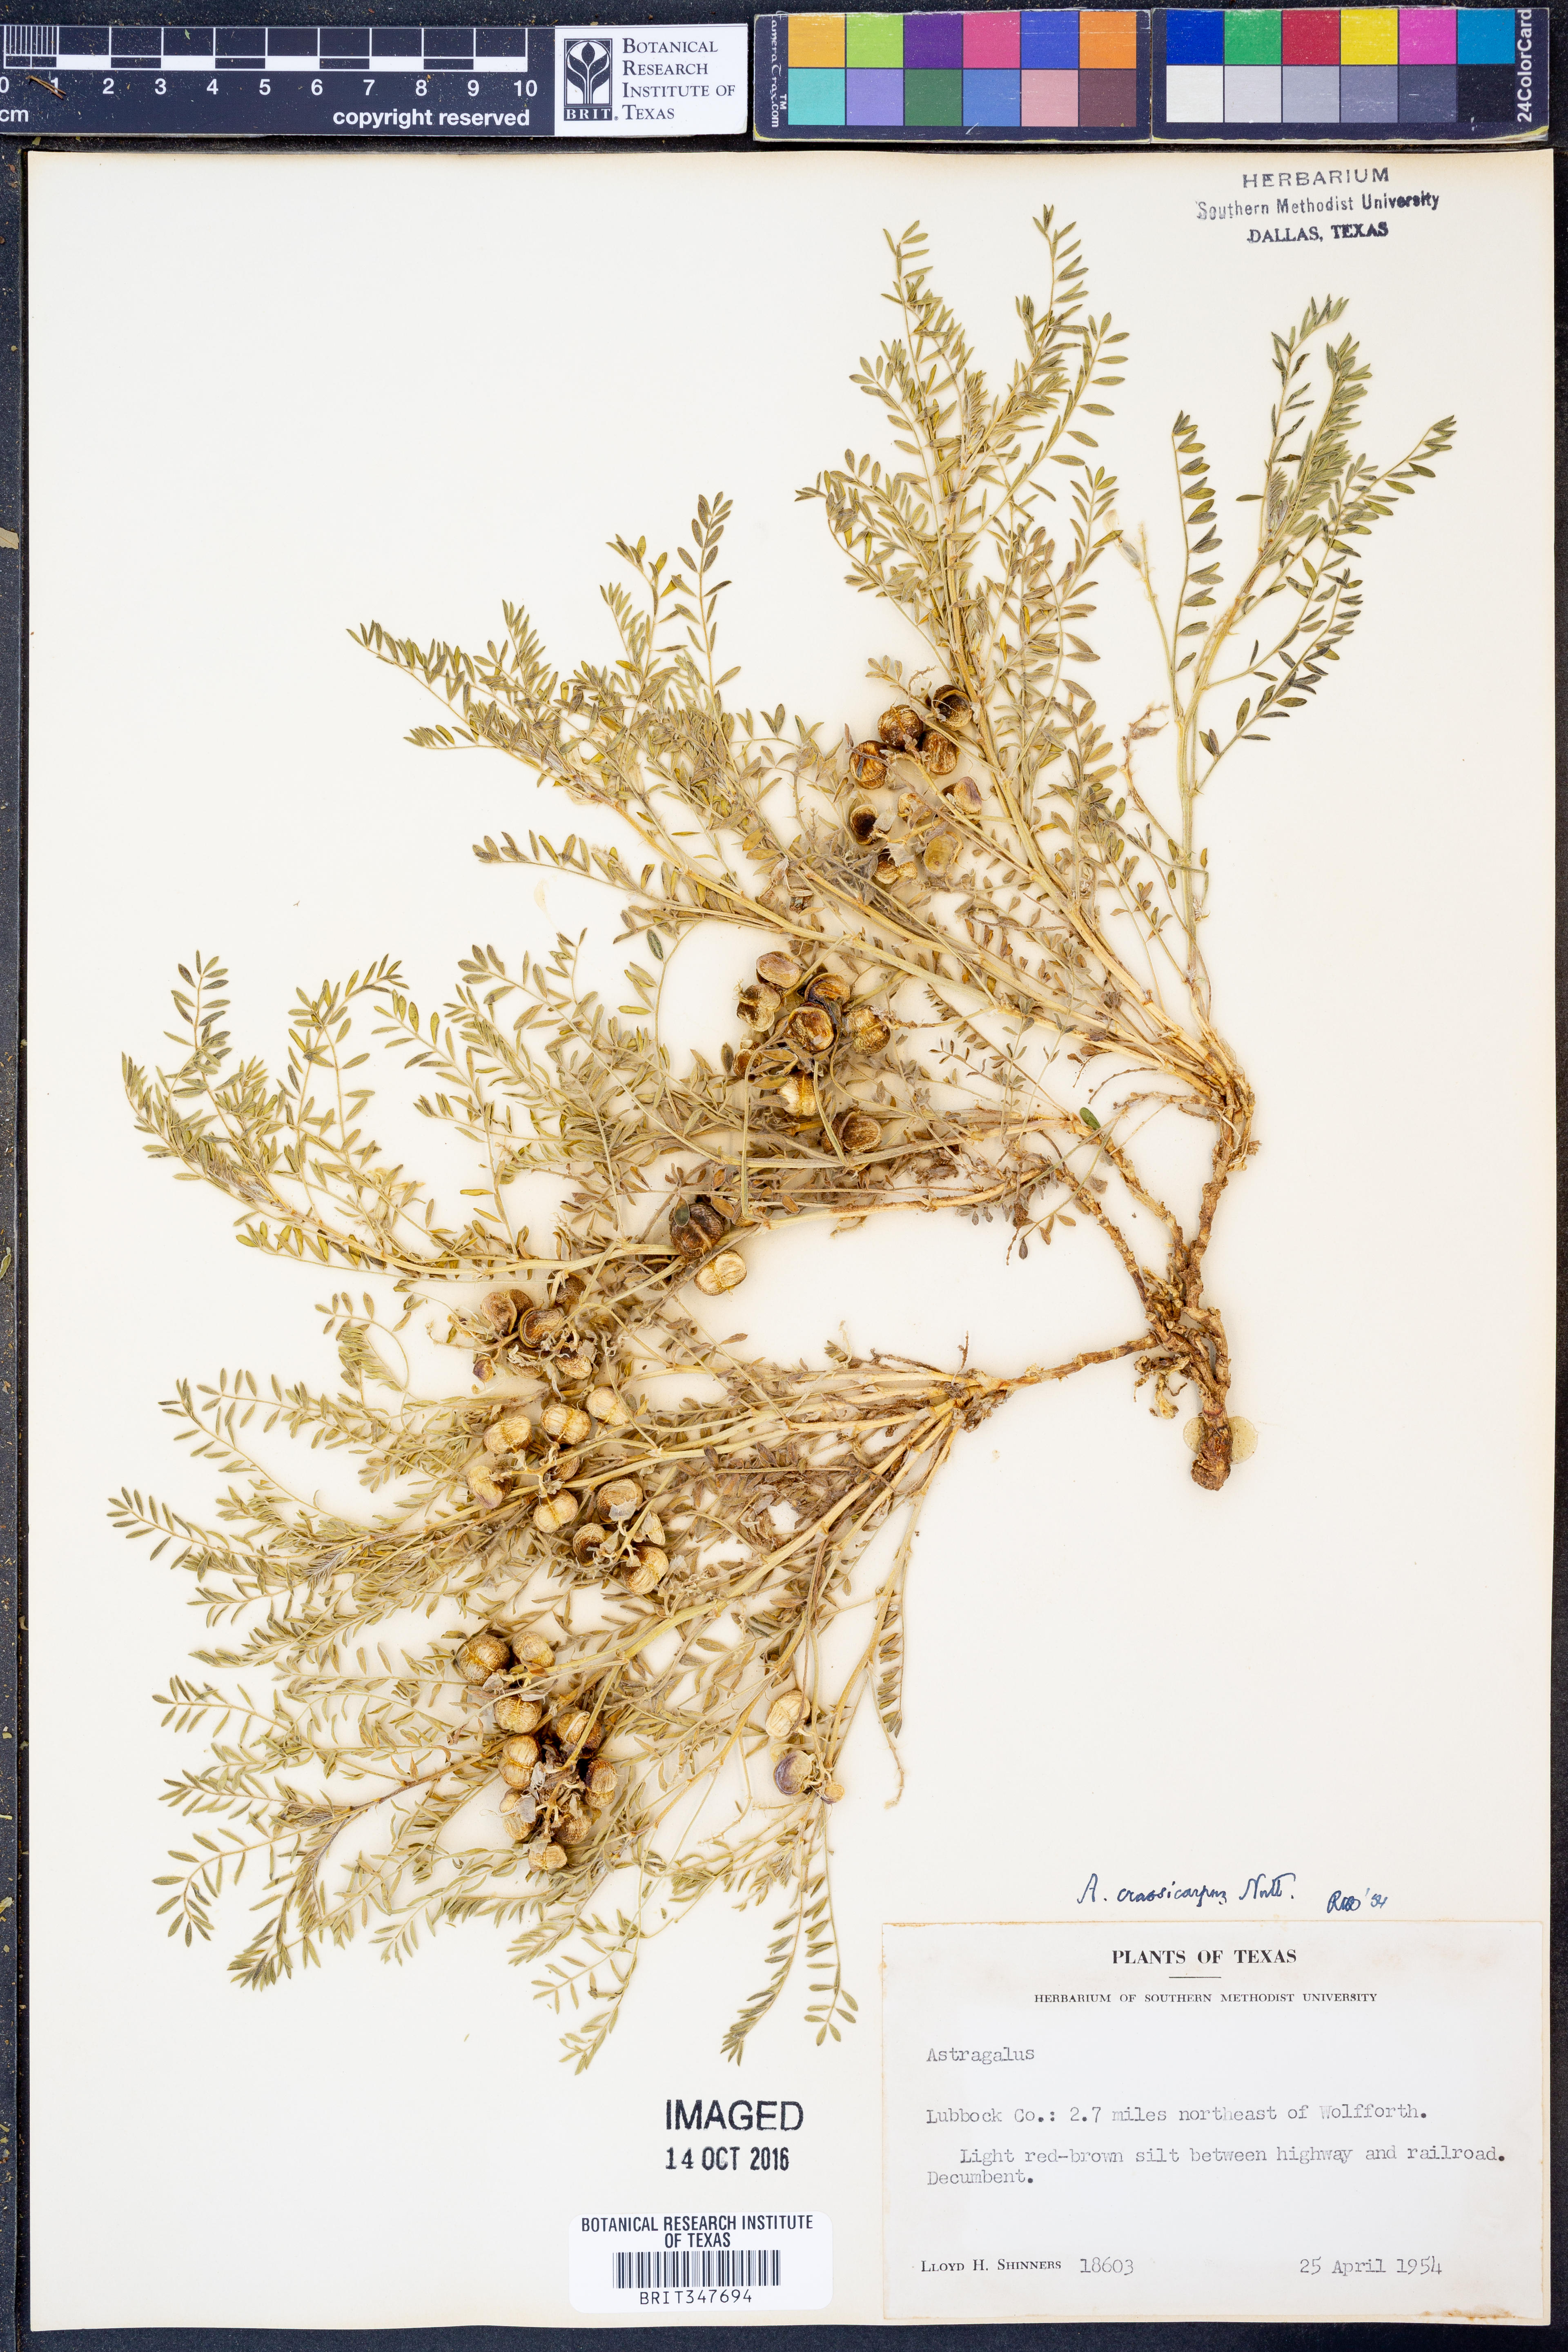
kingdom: Plantae
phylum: Tracheophyta
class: Magnoliopsida
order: Fabales
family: Fabaceae
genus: Astragalus
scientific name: Astragalus crassicarpus
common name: Ground-plum milk-vetch
